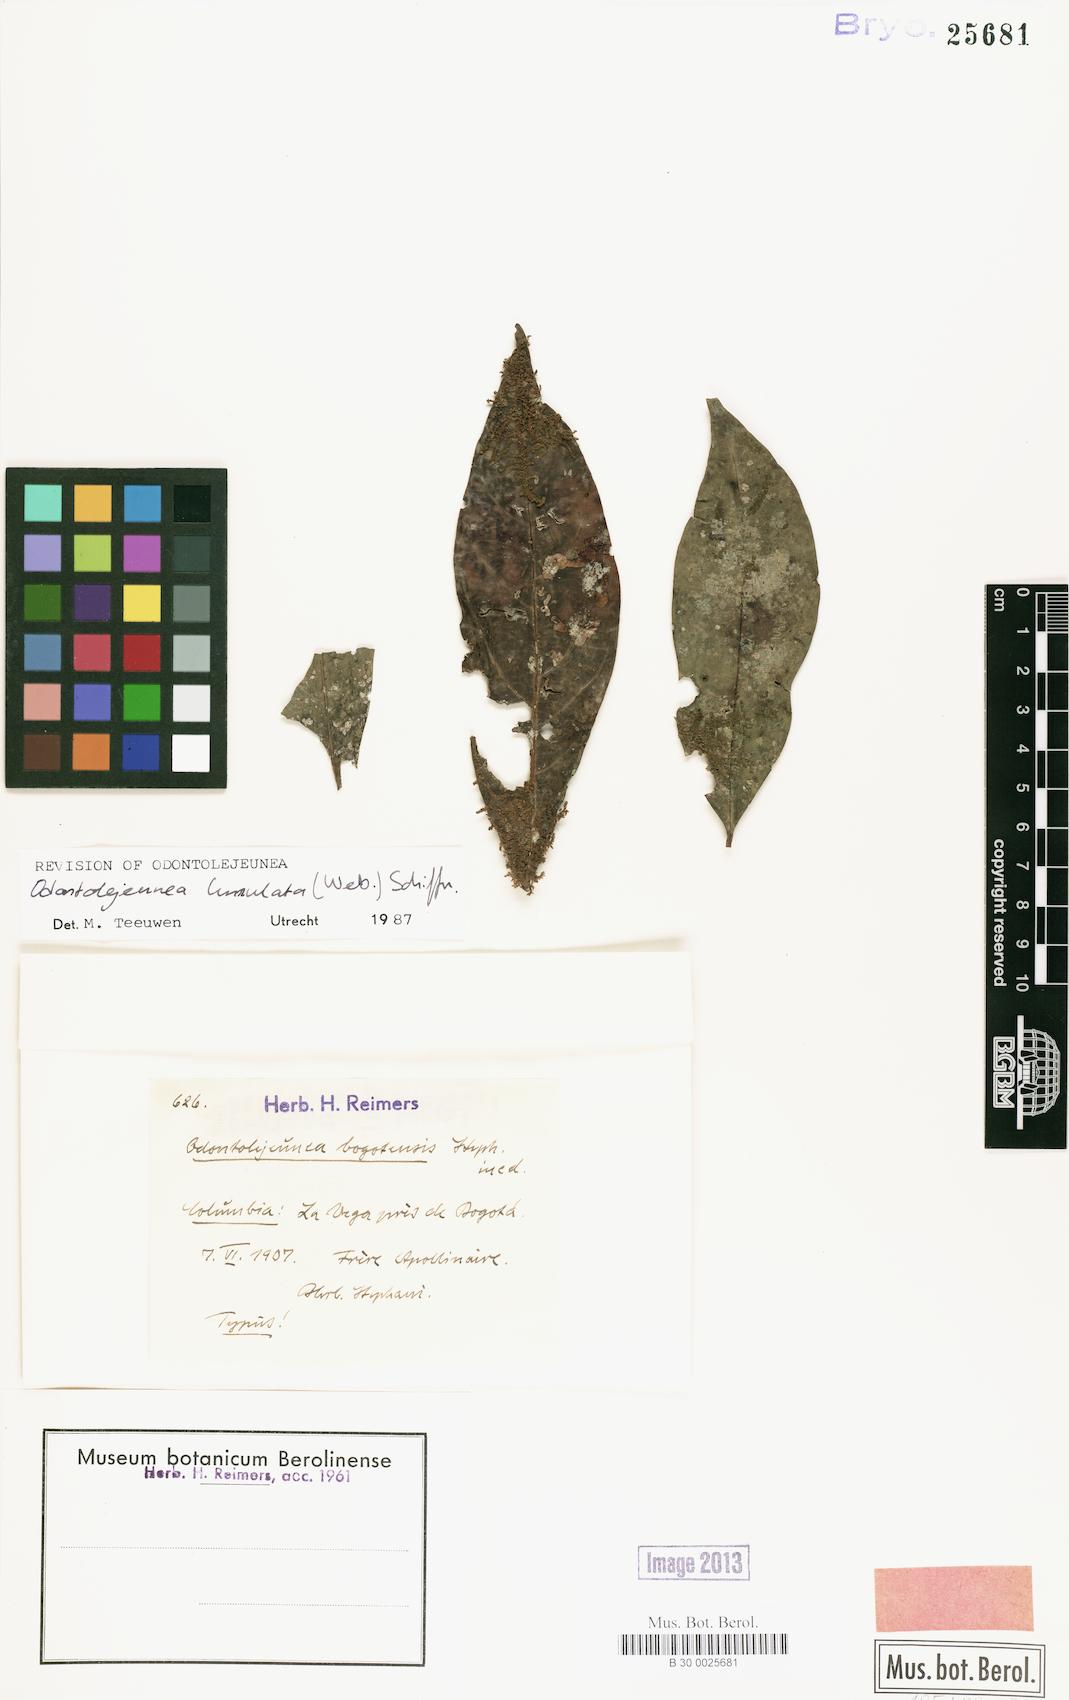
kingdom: Plantae
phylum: Marchantiophyta
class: Jungermanniopsida
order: Porellales
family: Lejeuneaceae
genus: Odontolejeunea
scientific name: Odontolejeunea lunulata
